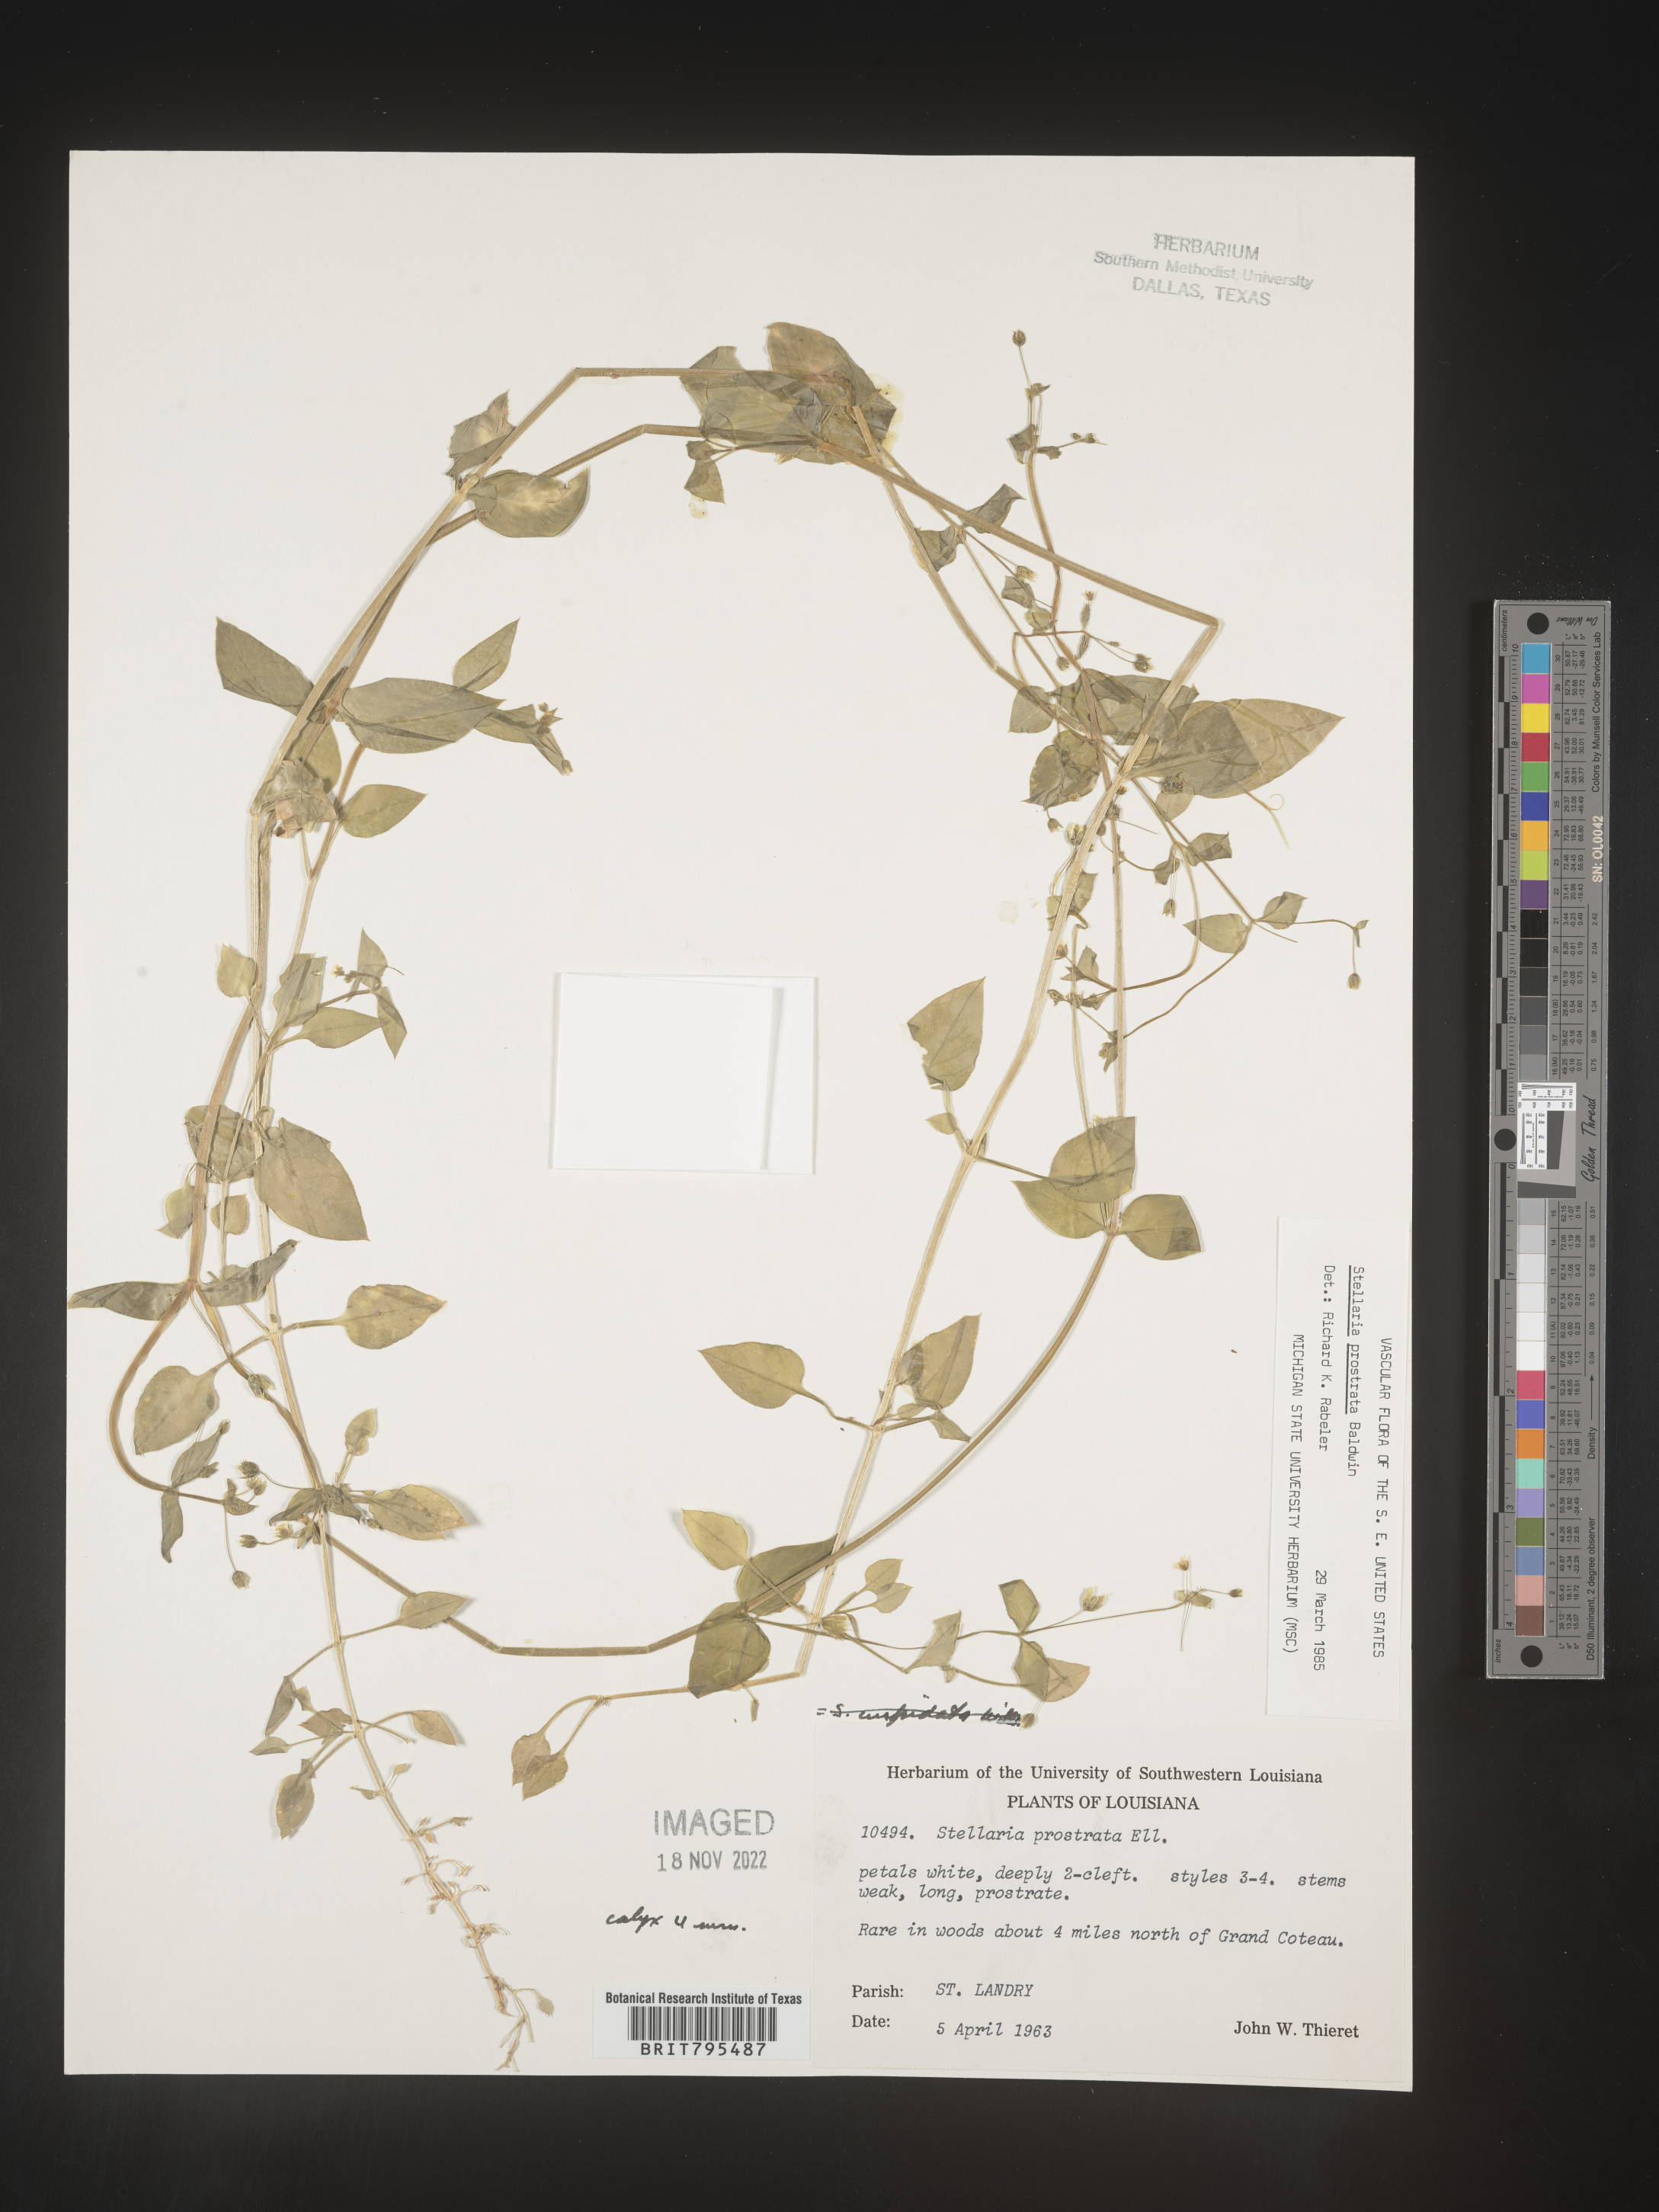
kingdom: Plantae
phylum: Tracheophyta
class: Magnoliopsida
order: Caryophyllales
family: Caryophyllaceae
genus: Stellaria
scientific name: Stellaria cuspidata
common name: Mexican chickweed
